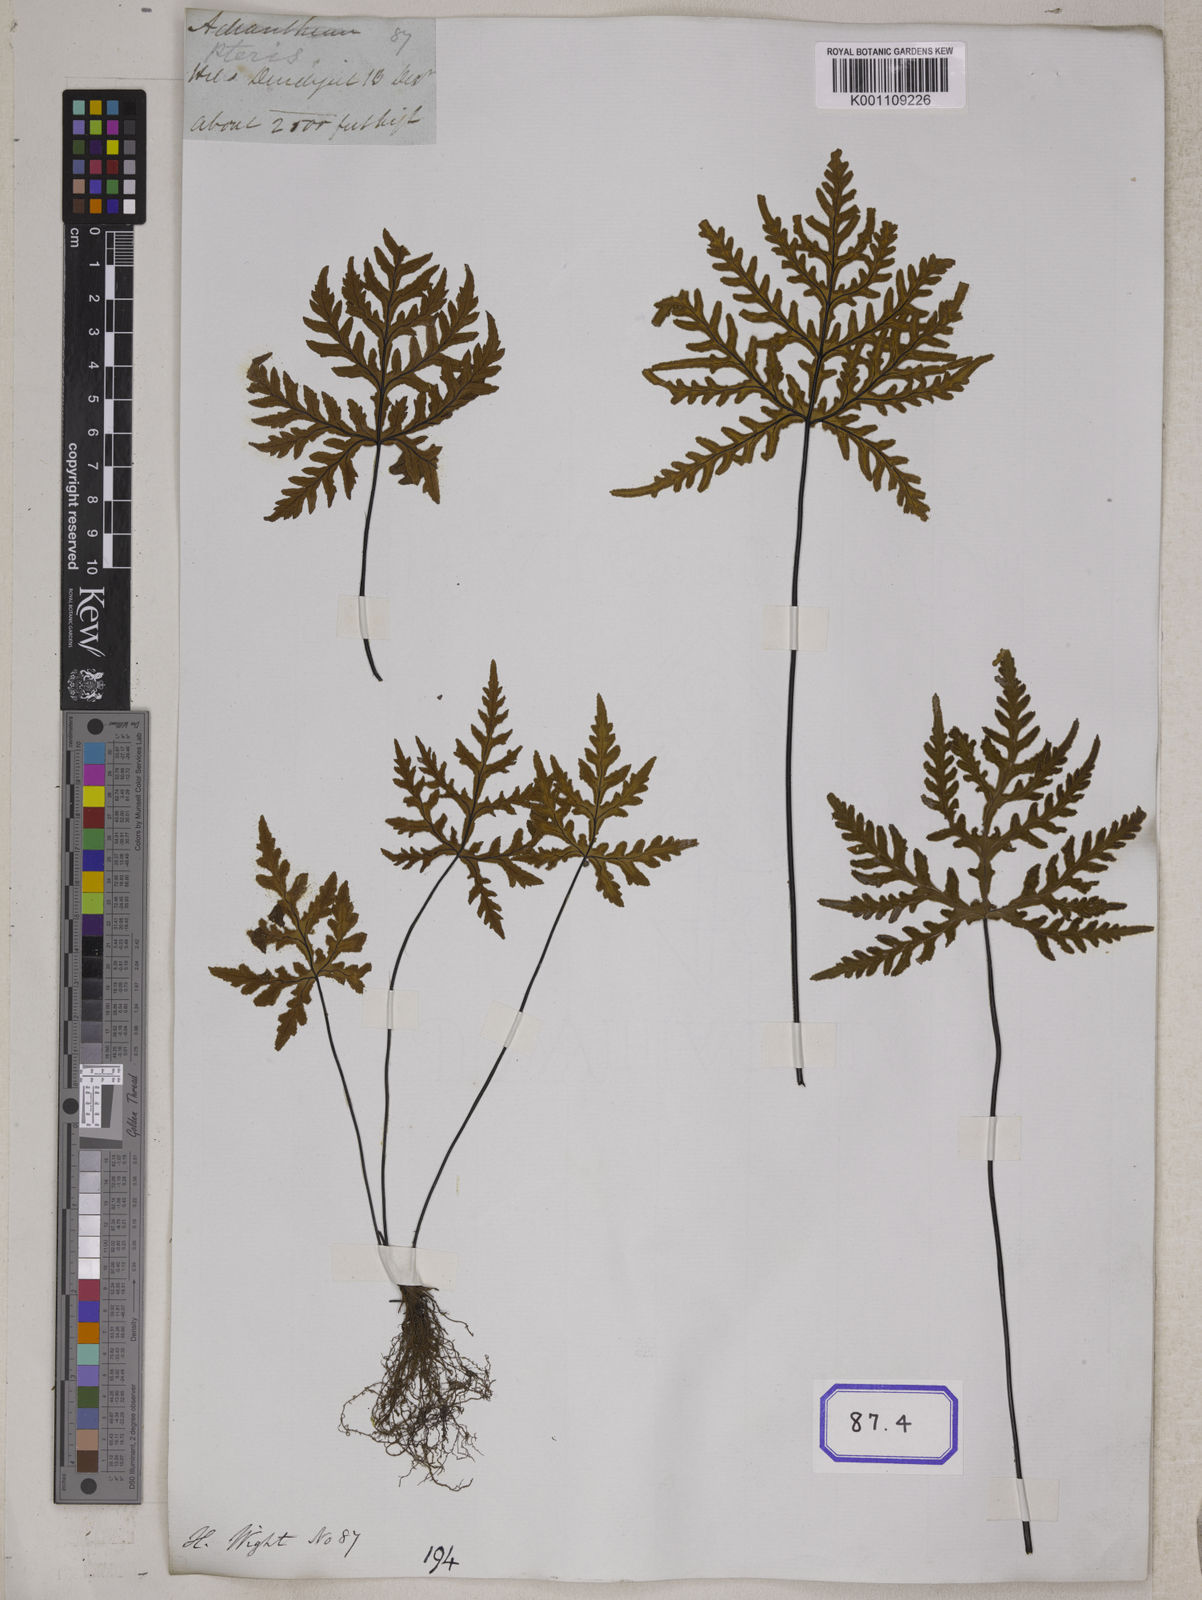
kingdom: Plantae
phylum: Tracheophyta
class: Polypodiopsida
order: Polypodiales
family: Pteridaceae
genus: Doryopteris
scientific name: Doryopteris concolor
